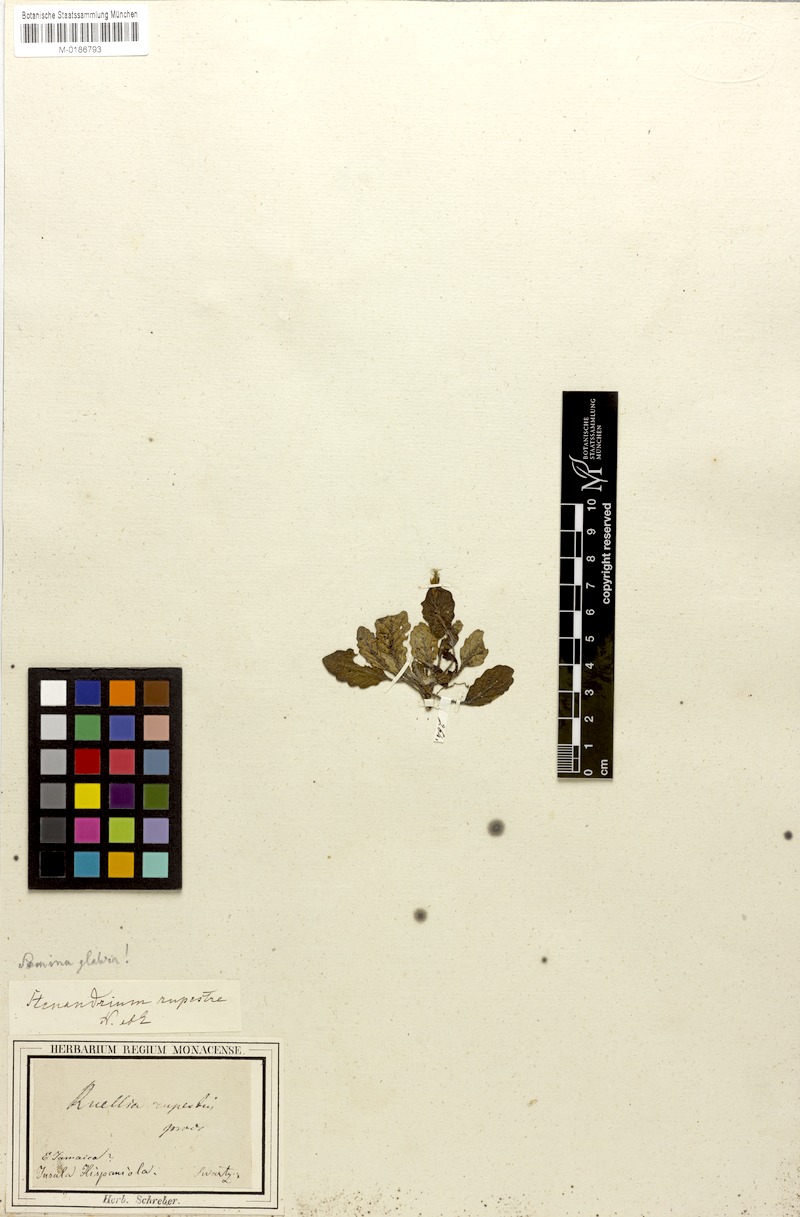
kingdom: Plantae
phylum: Tracheophyta
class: Magnoliopsida
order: Lamiales
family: Acanthaceae
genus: Stenandrium
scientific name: Stenandrium tuberosum
